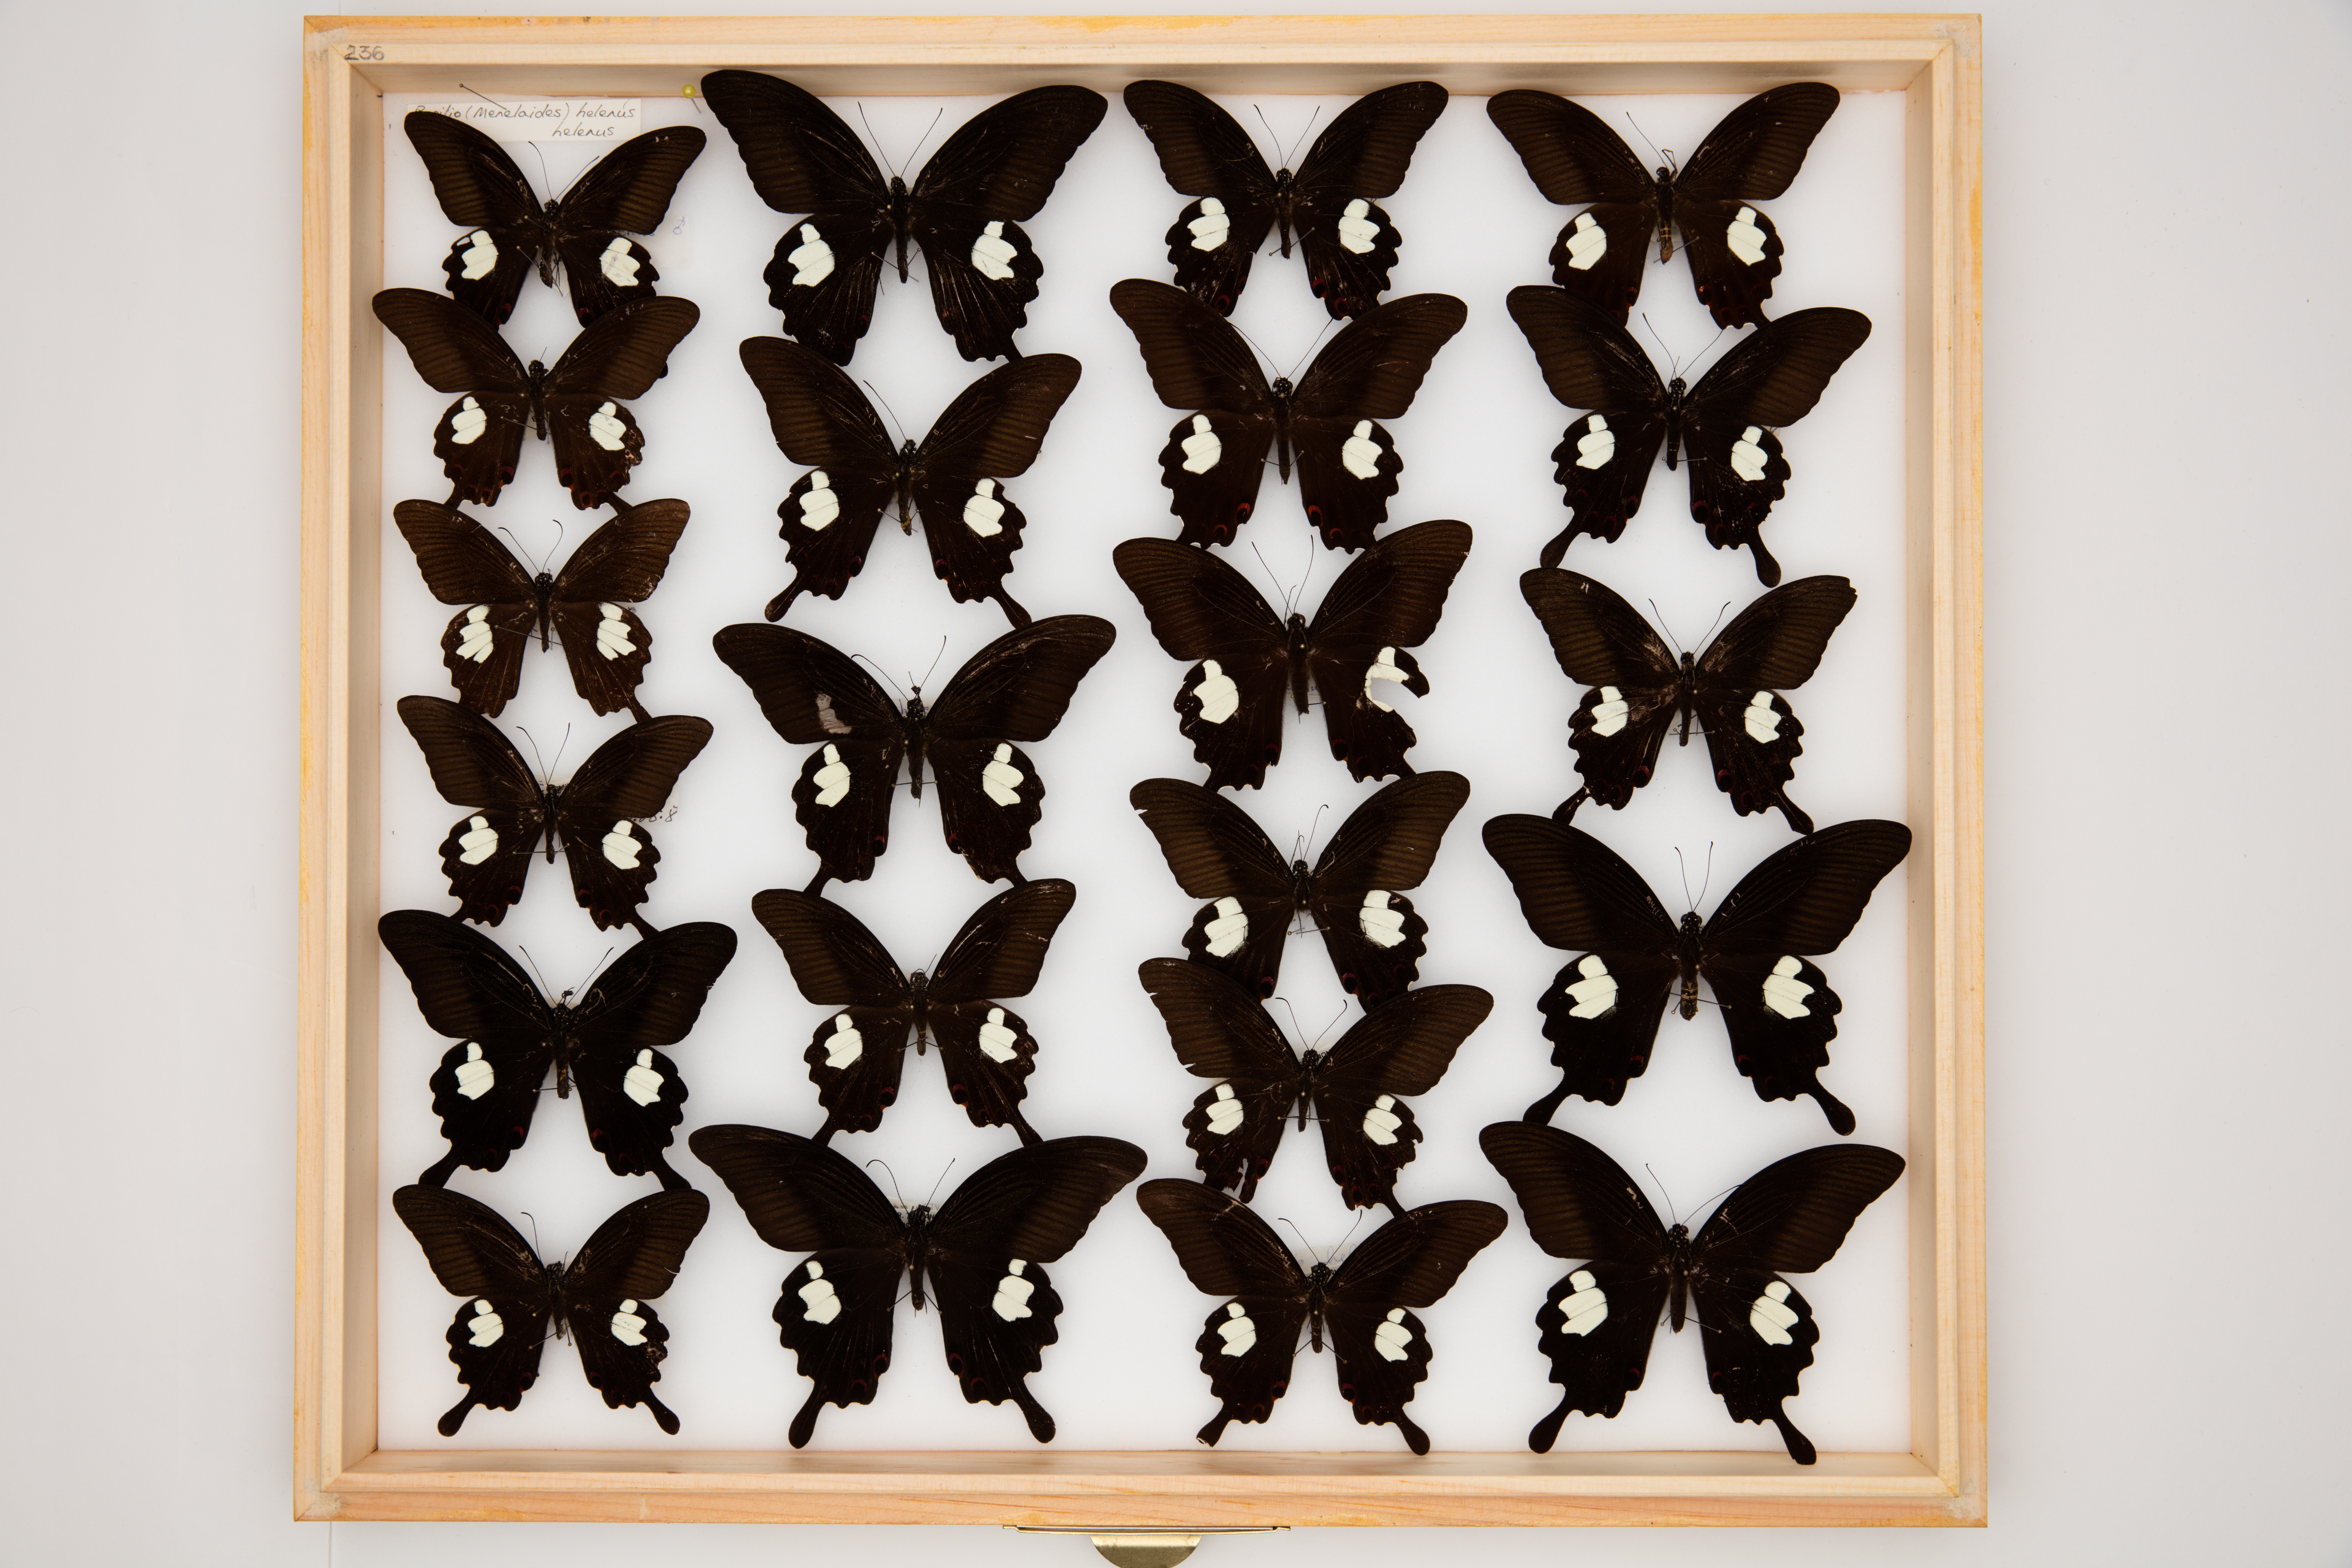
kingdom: Animalia
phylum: Arthropoda
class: Insecta
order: Lepidoptera
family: Papilionidae
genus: Papilio
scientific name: Papilio helenus
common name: Red helen
